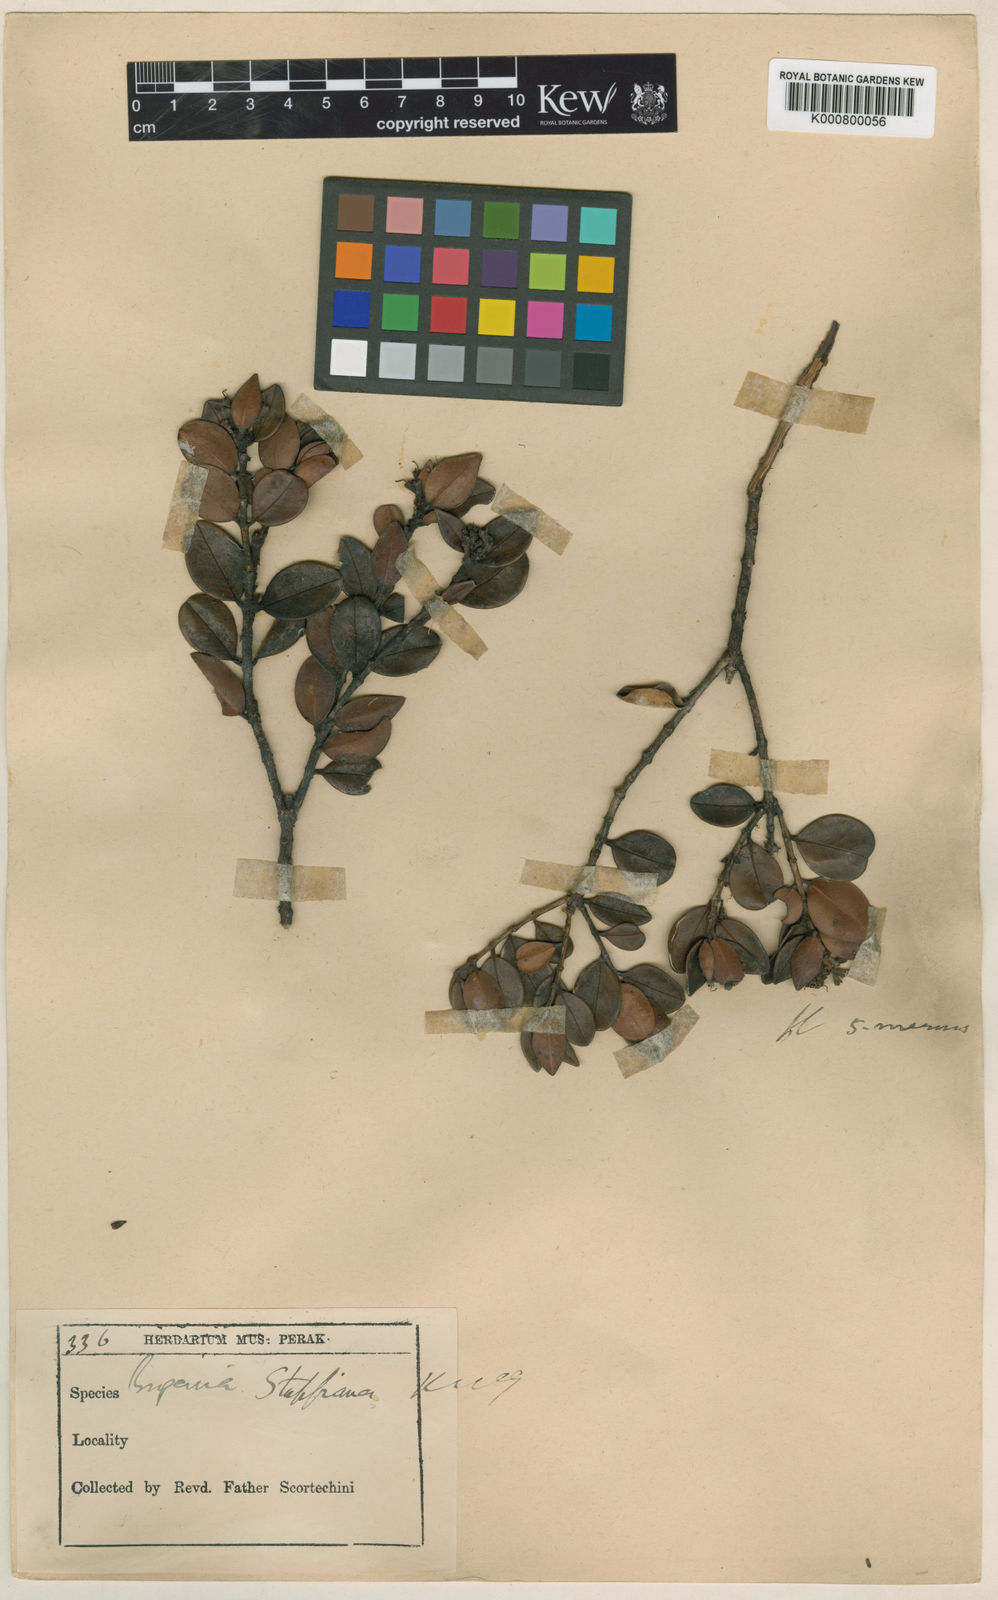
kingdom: Plantae
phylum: Tracheophyta
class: Magnoliopsida
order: Myrtales
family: Myrtaceae
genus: Syzygium
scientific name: Syzygium stapfianum
